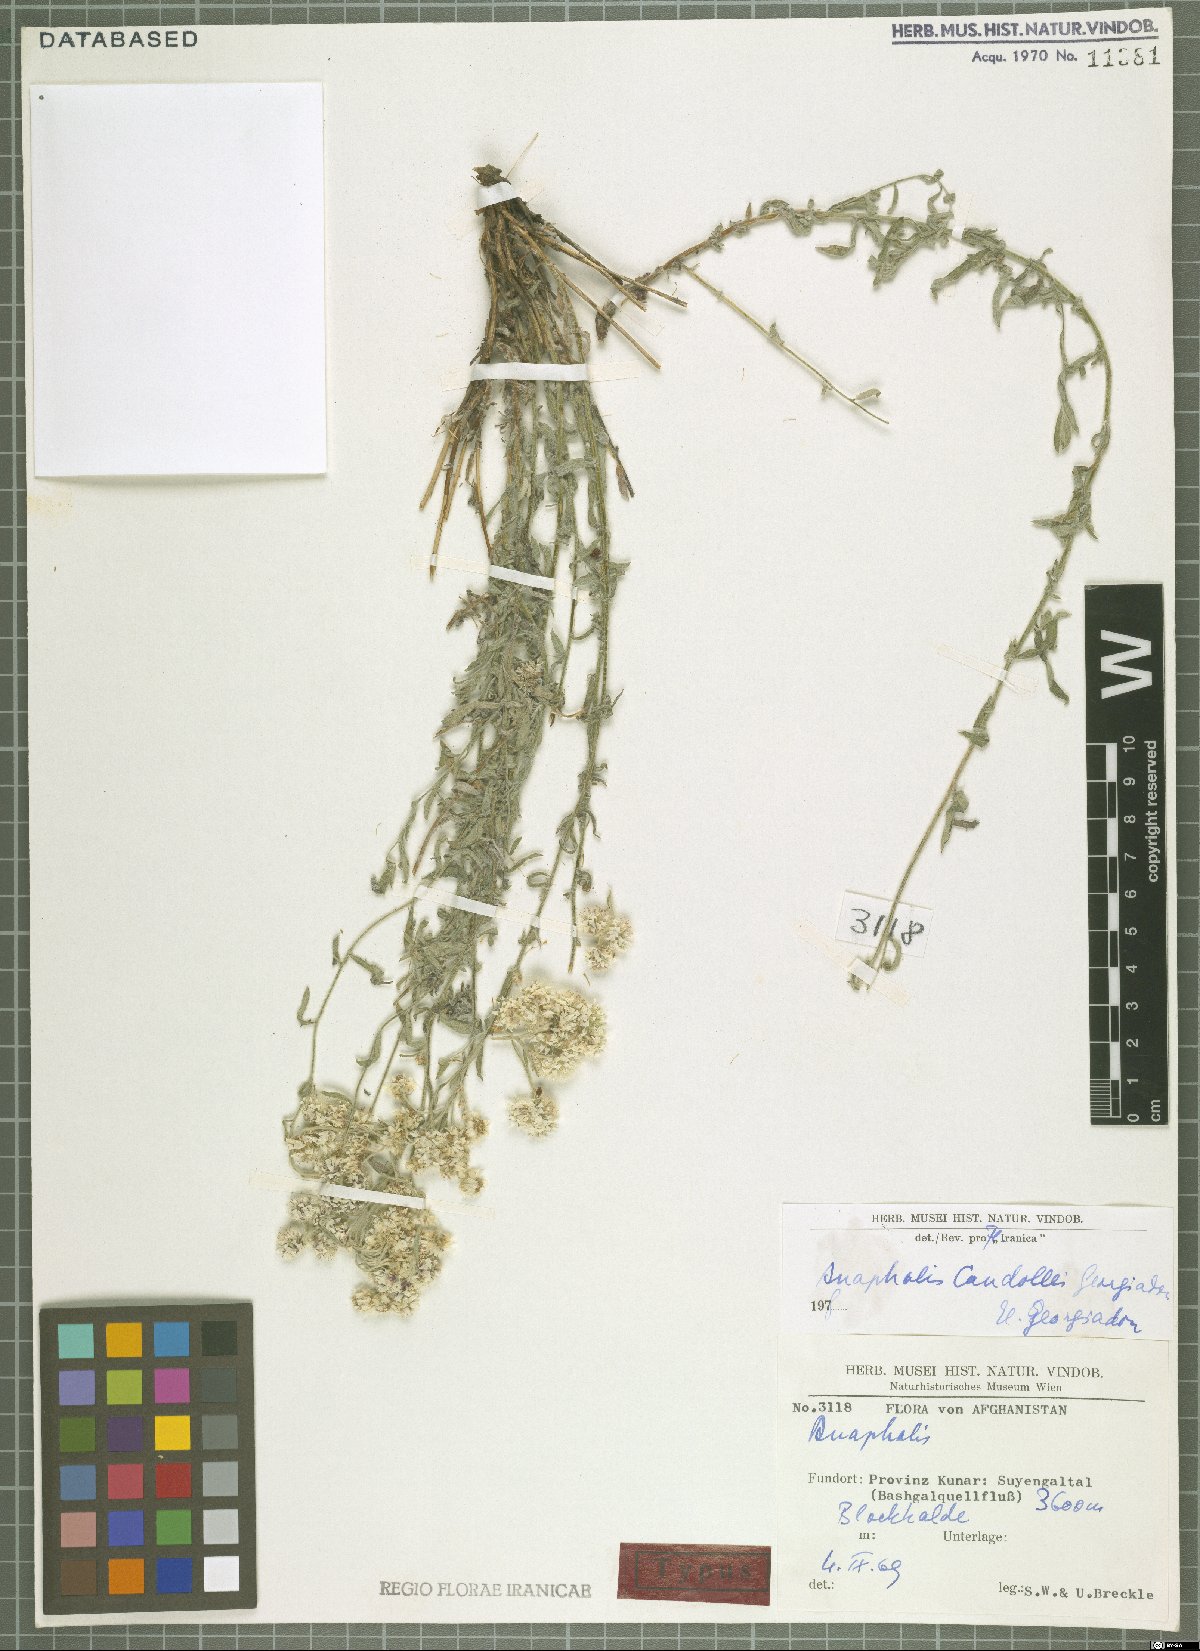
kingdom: Plantae
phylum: Tracheophyta
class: Magnoliopsida
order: Asterales
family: Asteraceae
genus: Anaphalis
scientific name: Anaphalis candollei
